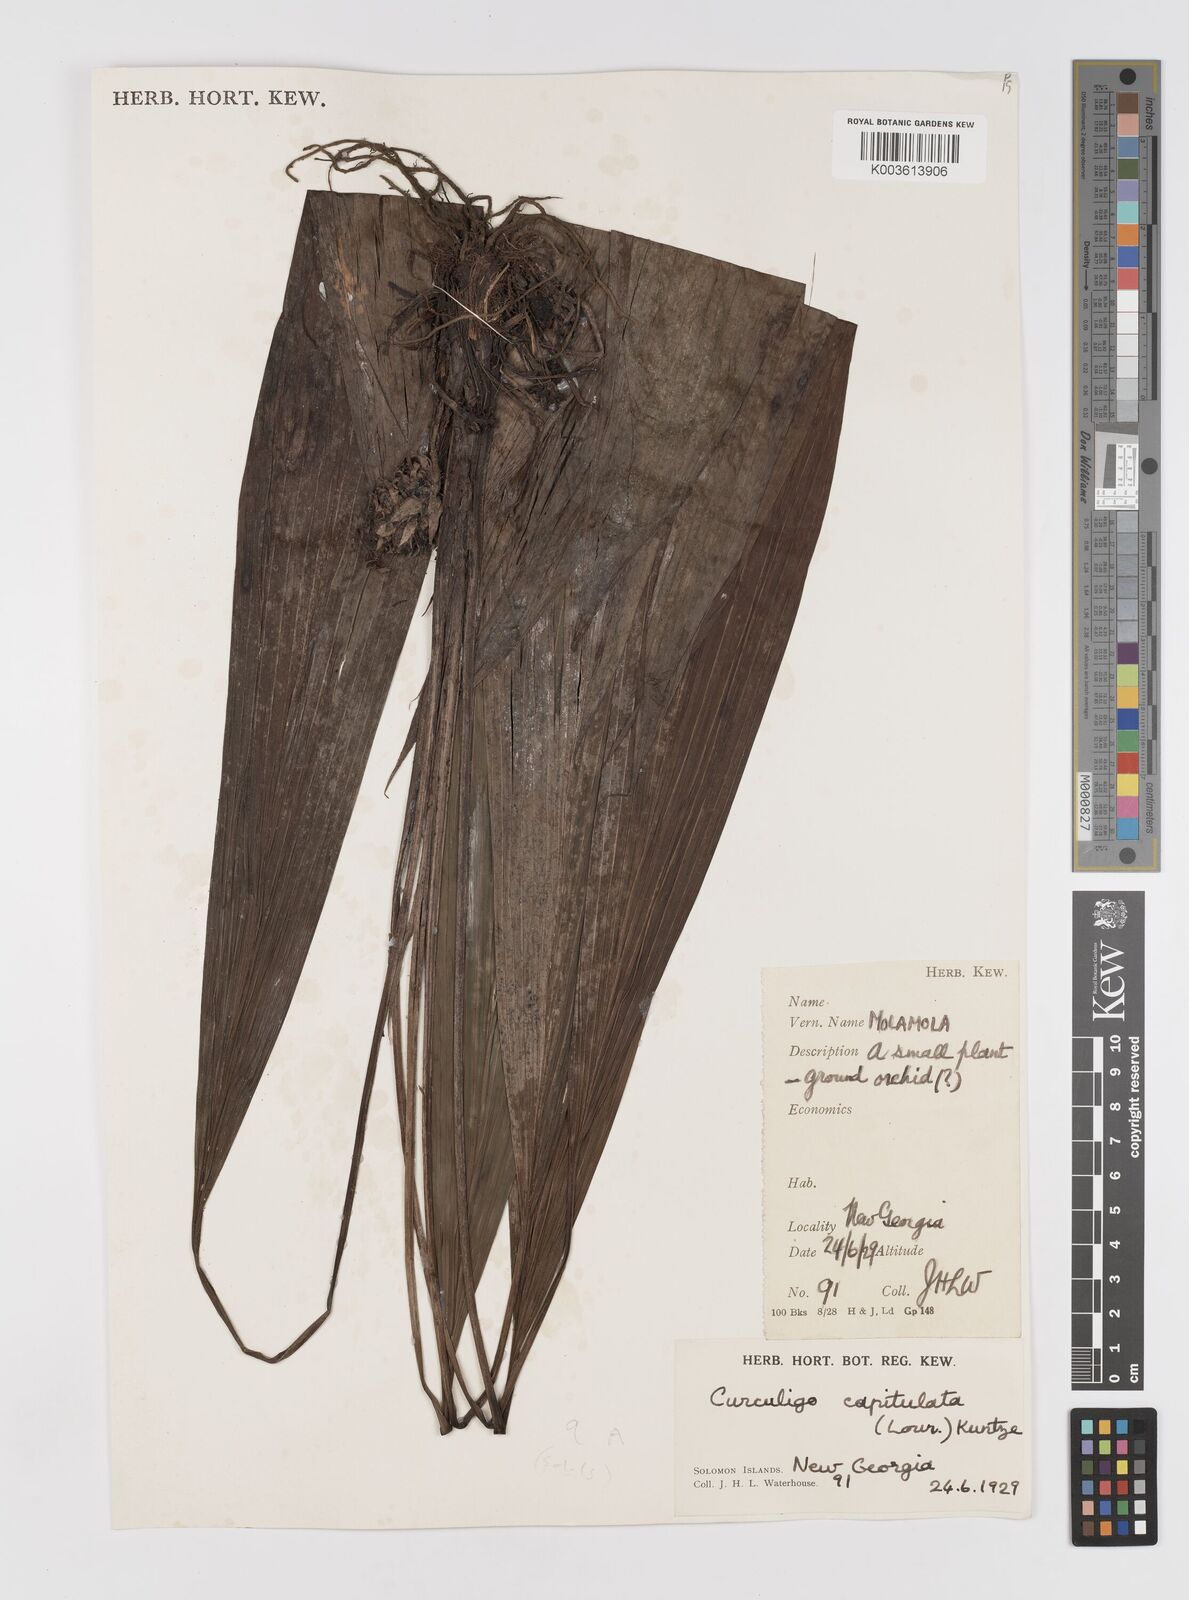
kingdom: Plantae
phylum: Tracheophyta
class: Liliopsida
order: Asparagales
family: Hypoxidaceae
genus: Curculigo
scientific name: Curculigo capitulata
